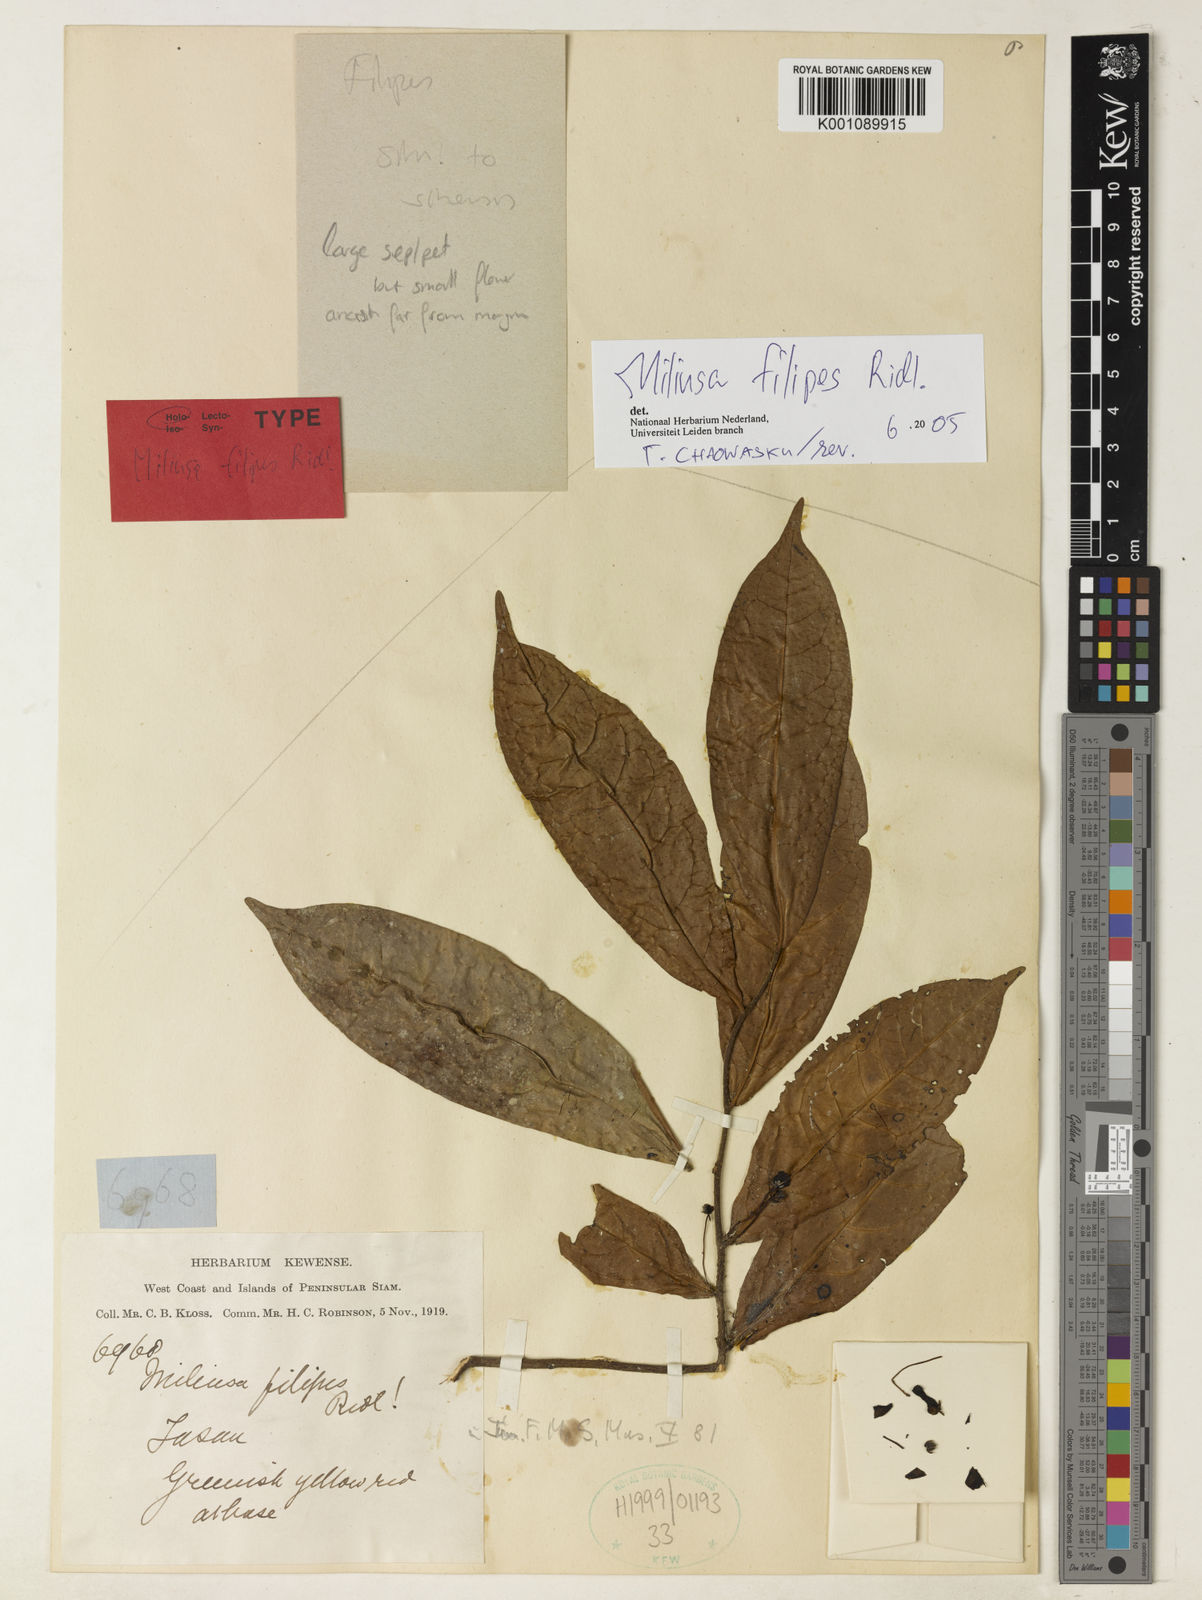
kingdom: Plantae
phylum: Tracheophyta
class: Magnoliopsida
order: Magnoliales
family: Annonaceae
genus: Miliusa
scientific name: Miliusa filipes
